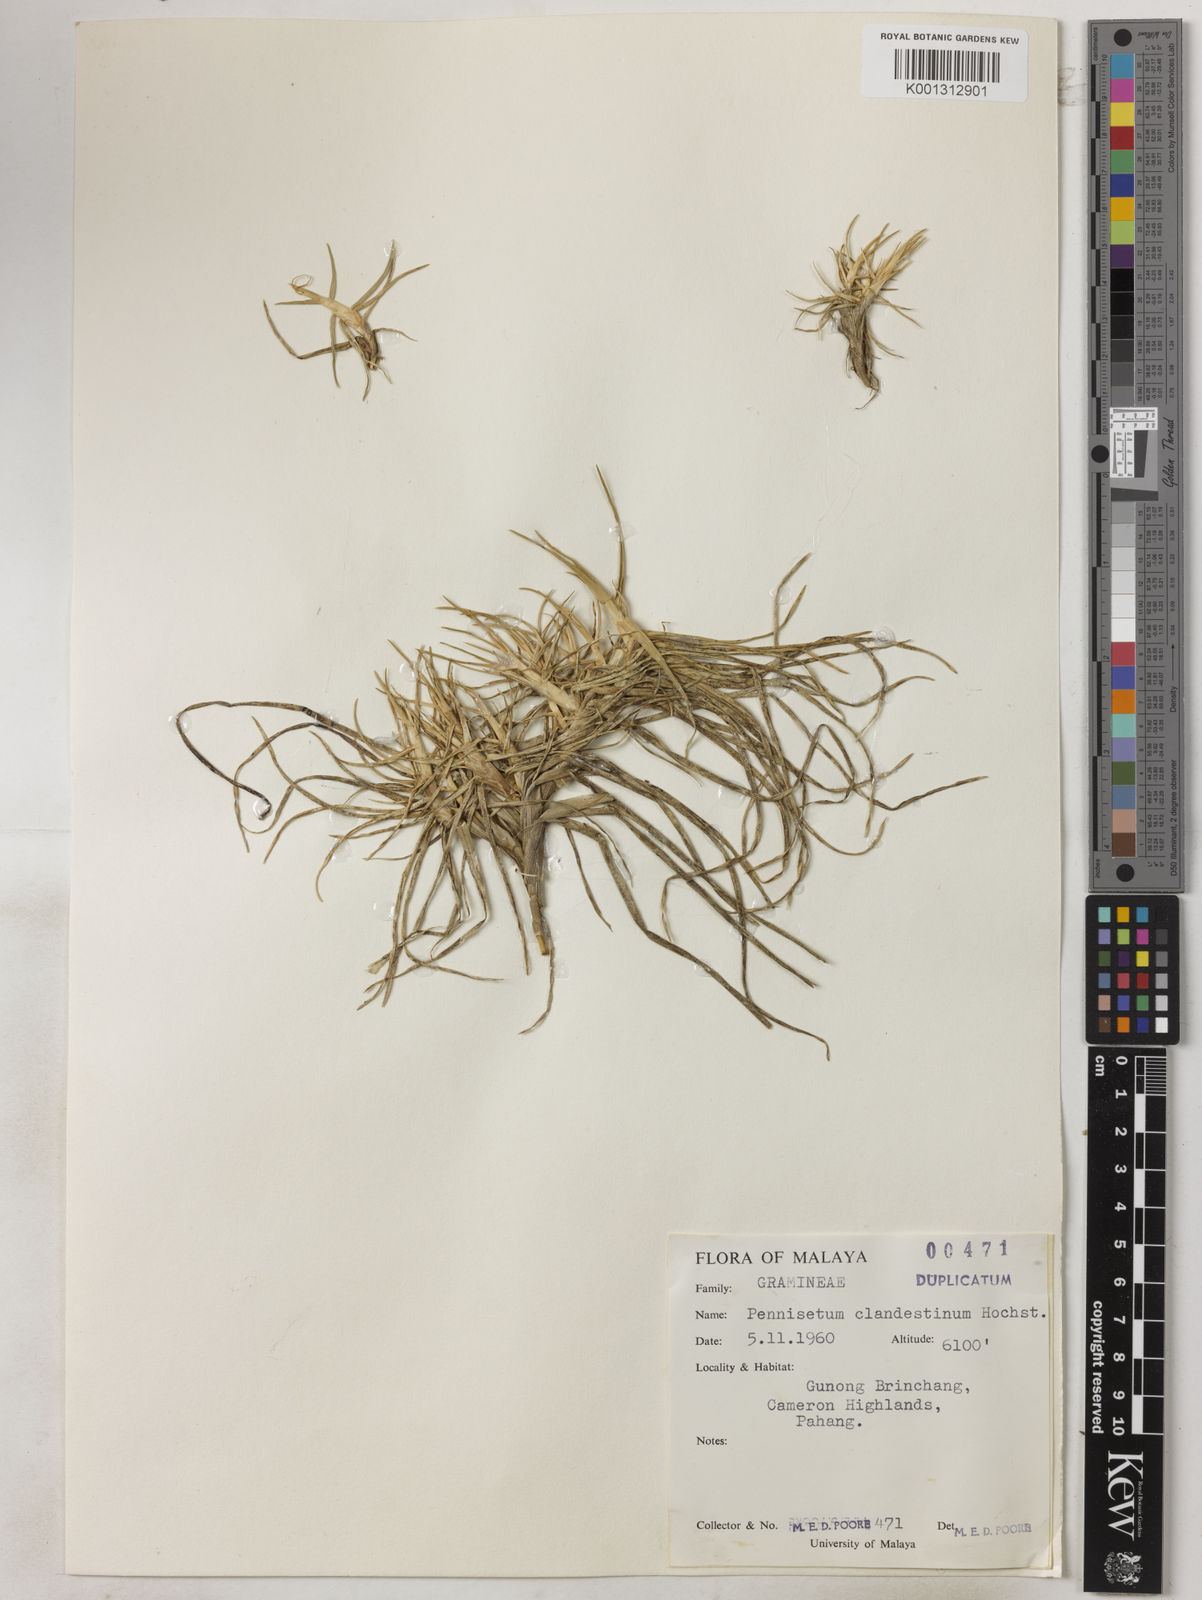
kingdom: Plantae
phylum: Tracheophyta
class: Liliopsida
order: Poales
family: Poaceae
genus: Cenchrus
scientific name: Cenchrus clandestinus
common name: Kikuyugrass
